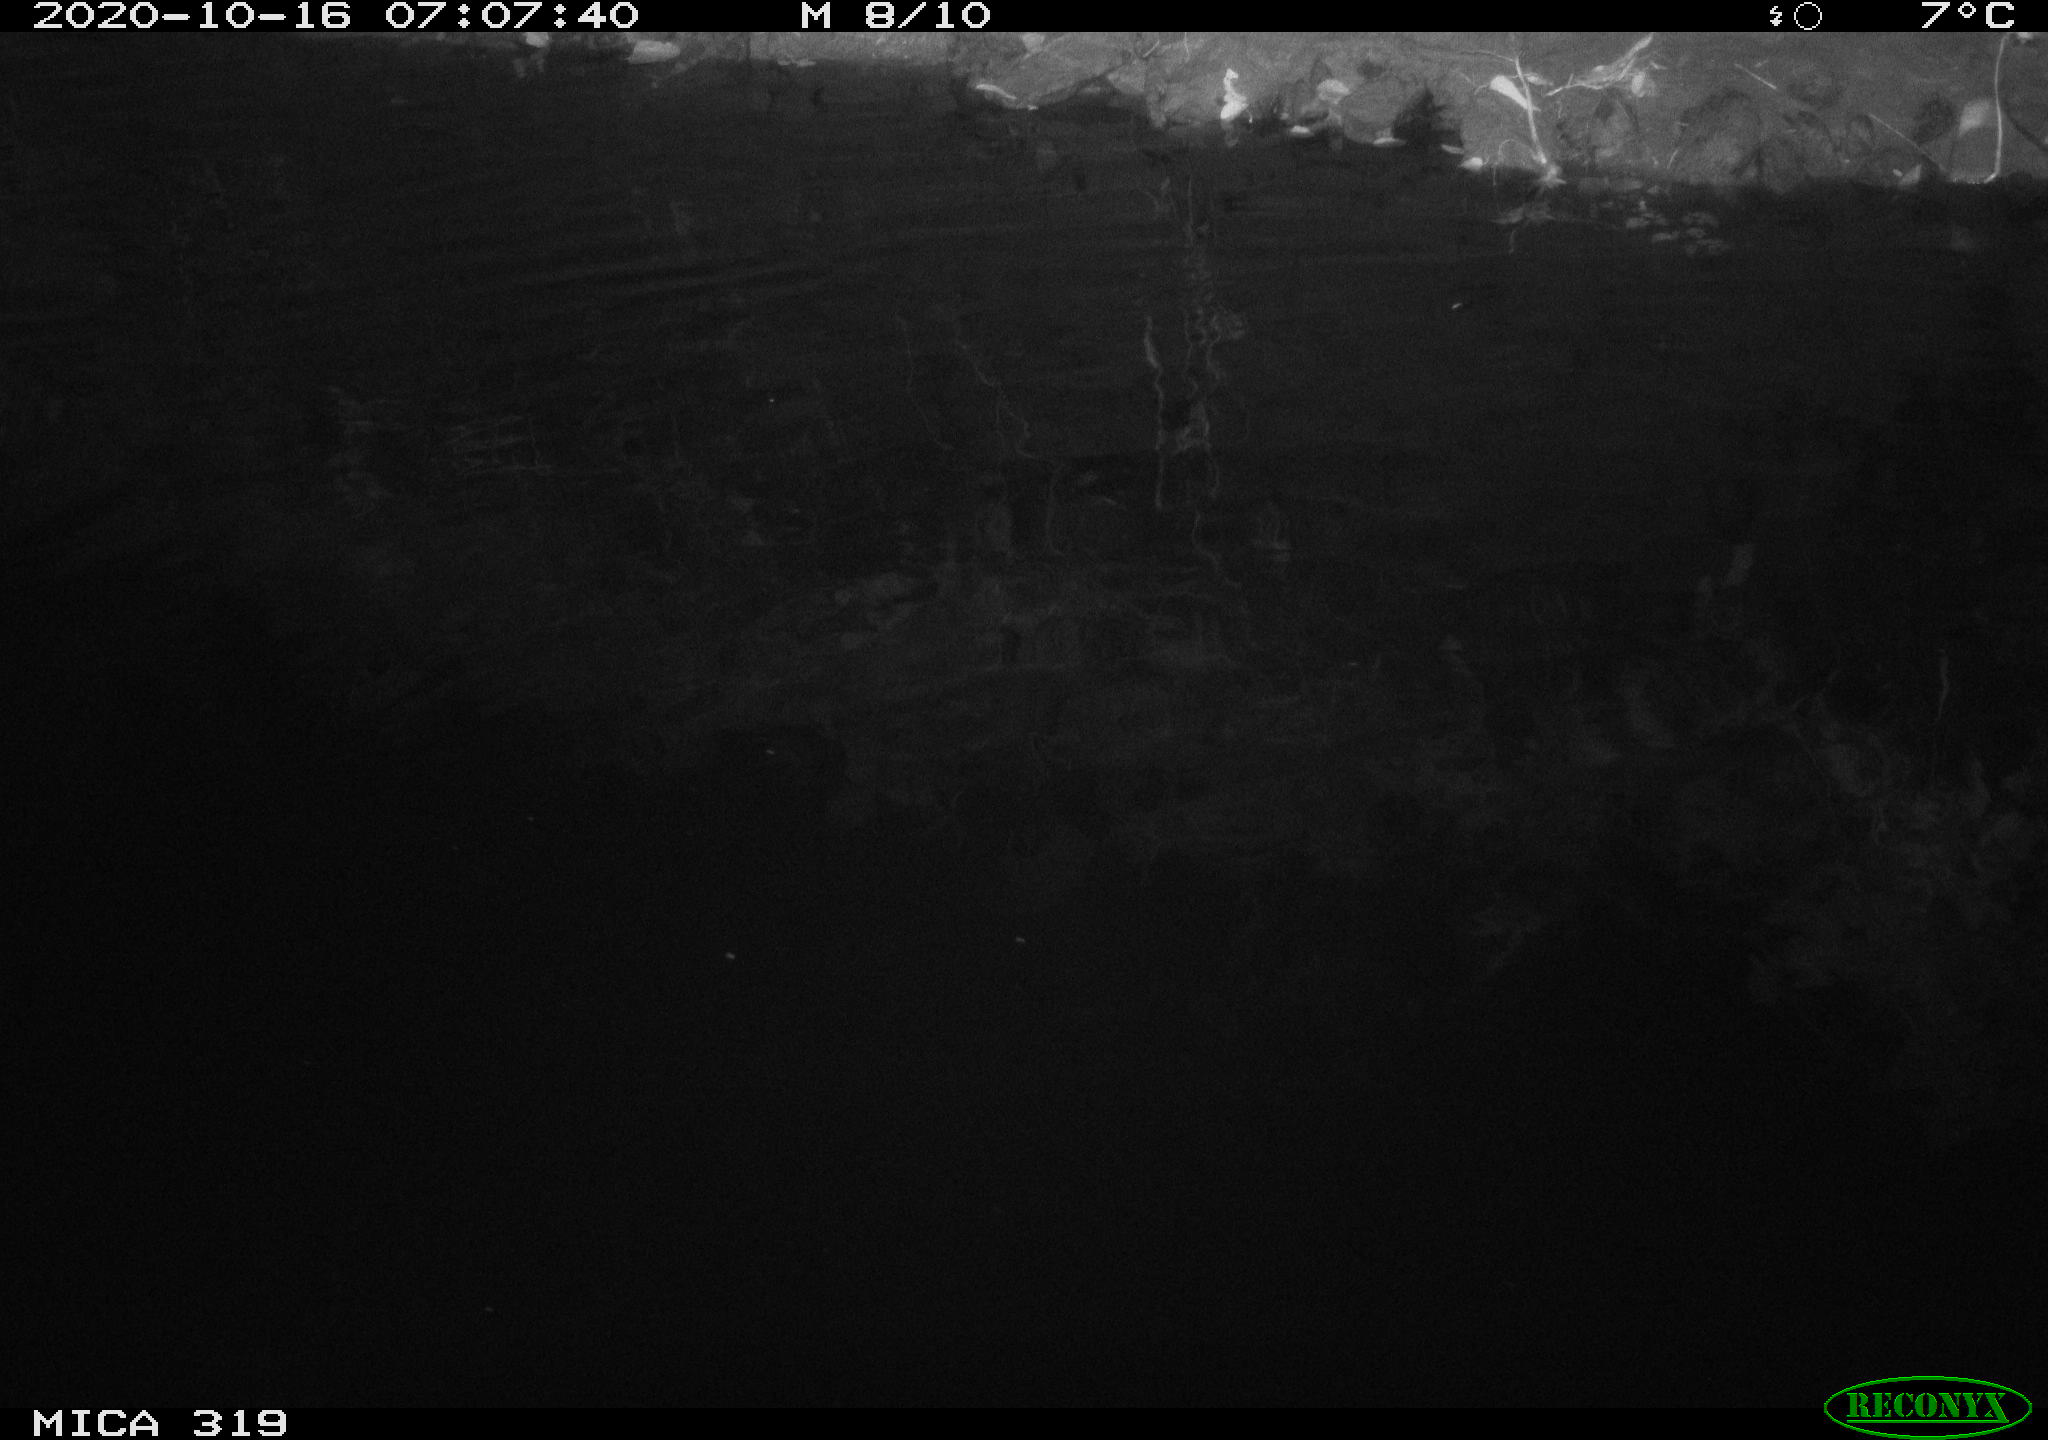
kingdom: Animalia
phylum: Chordata
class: Mammalia
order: Rodentia
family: Muridae
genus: Rattus
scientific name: Rattus norvegicus
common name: Brown rat
